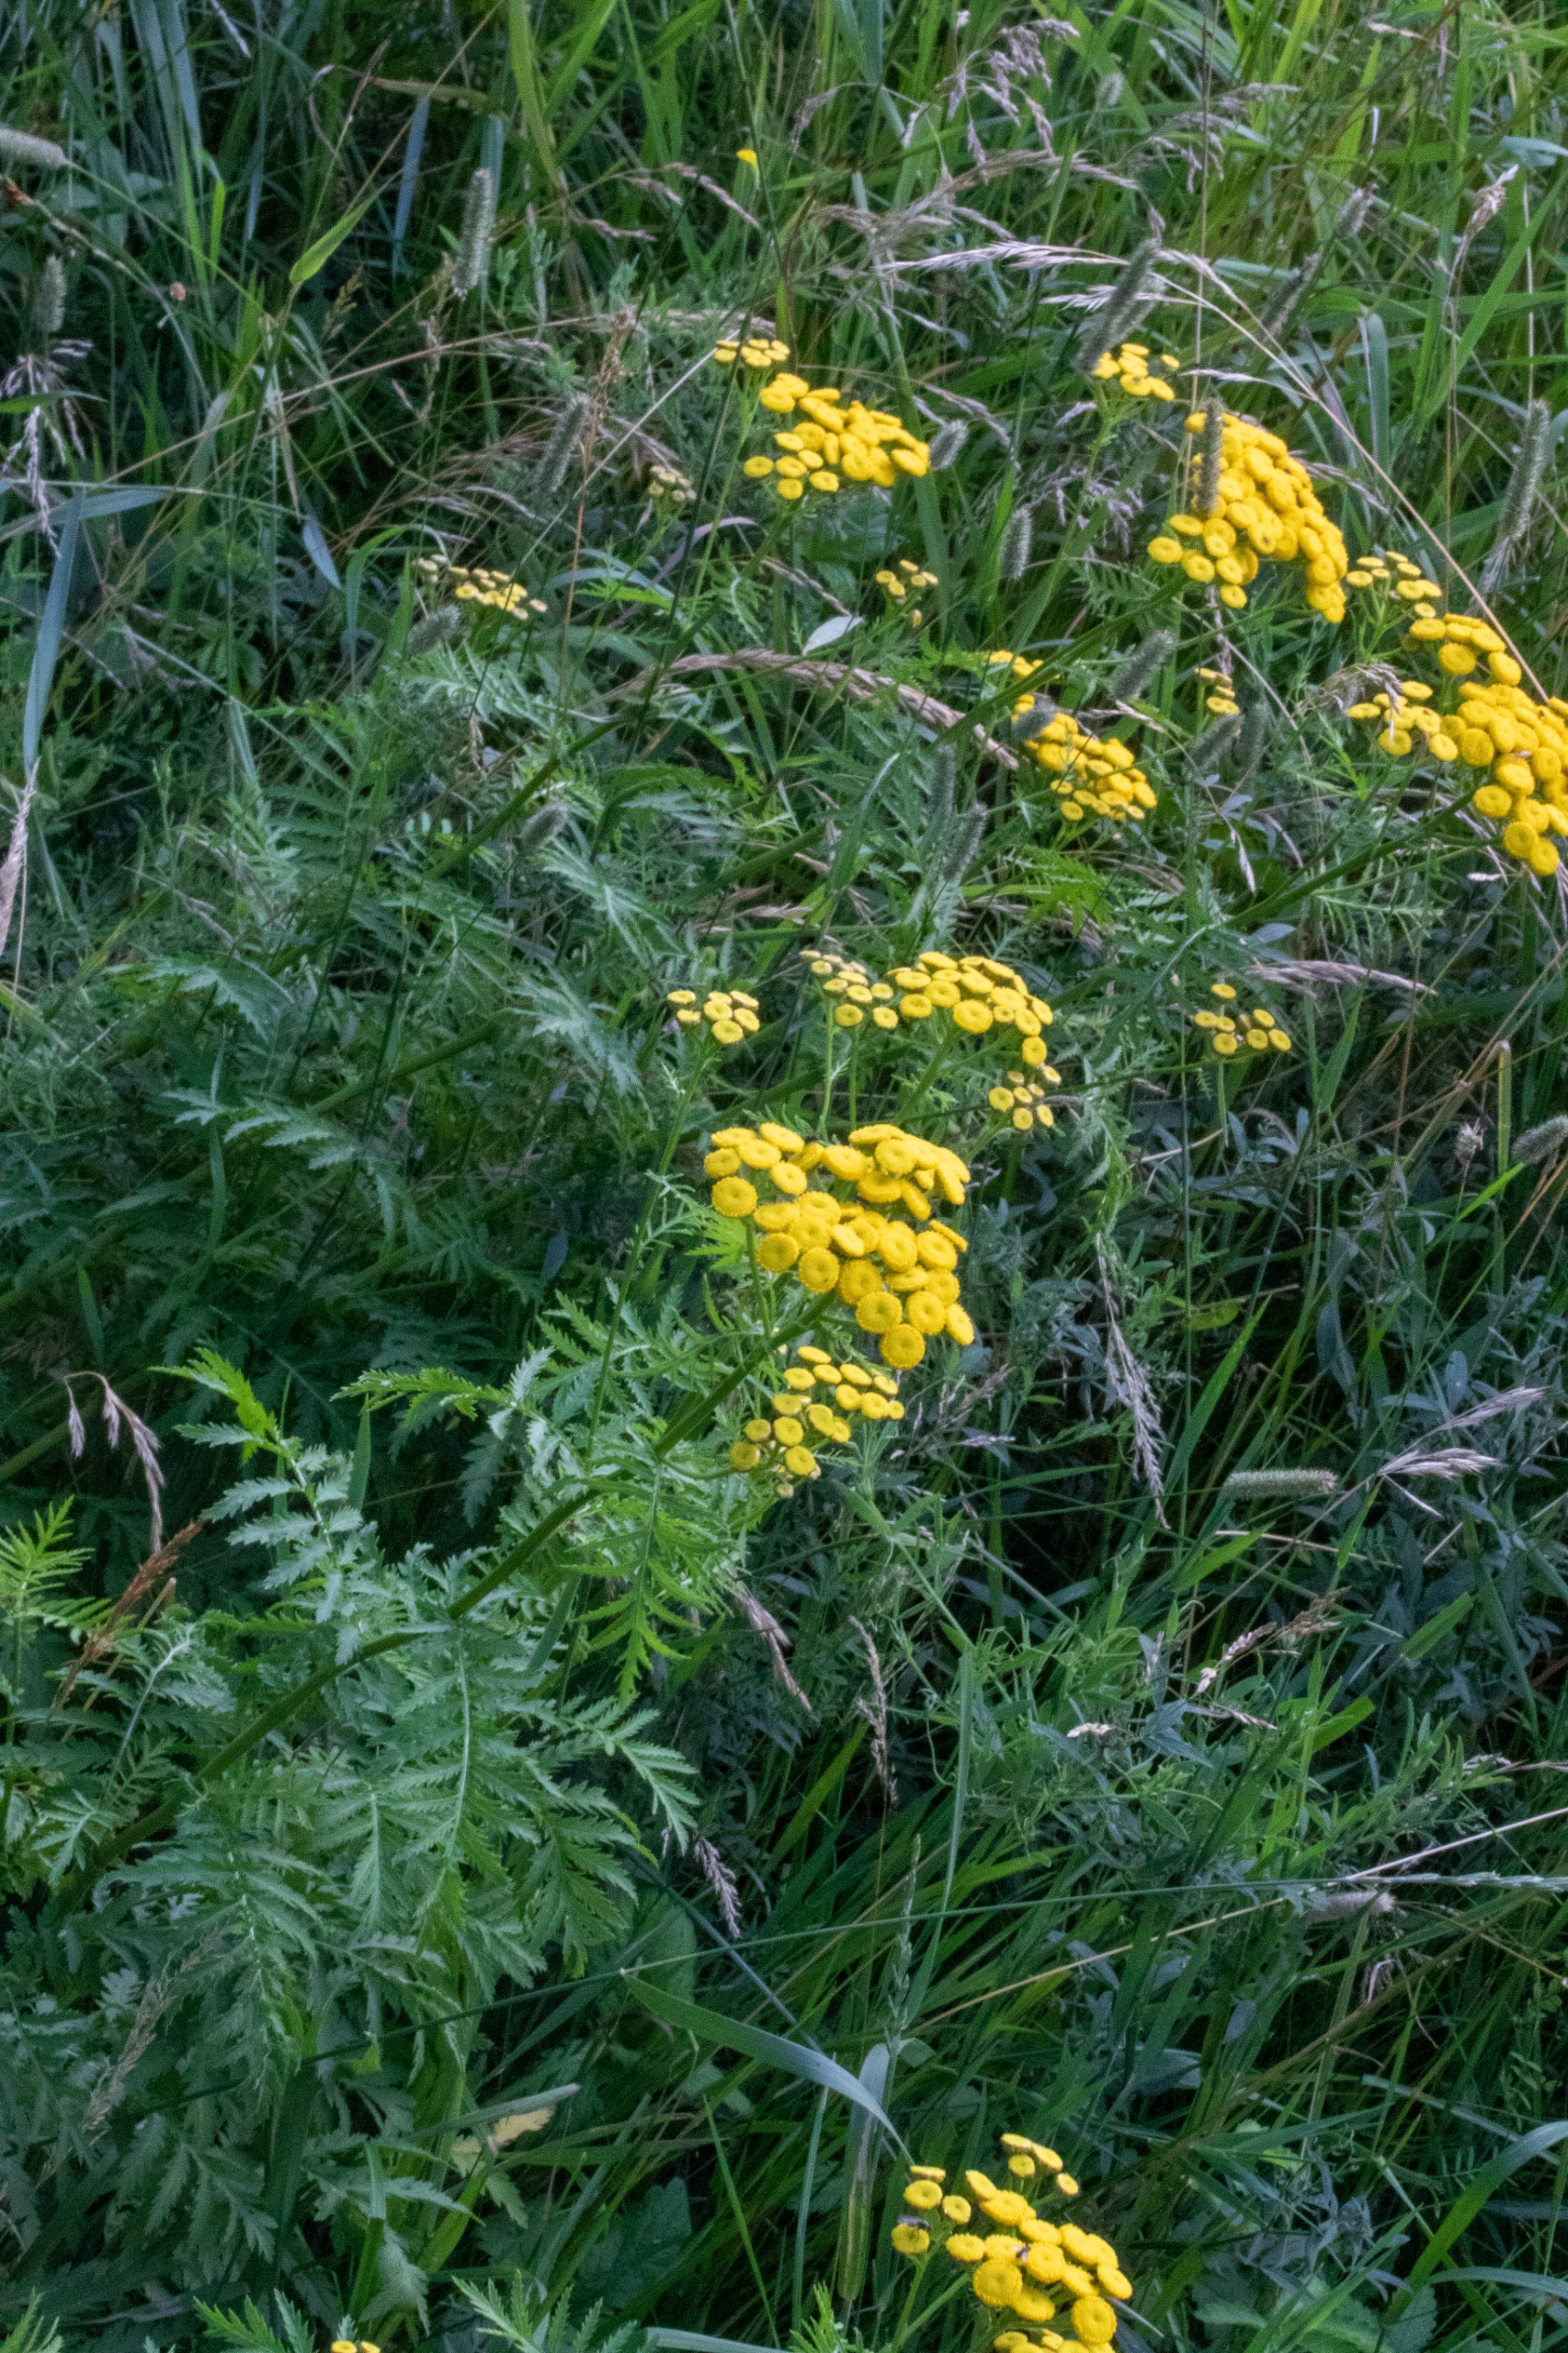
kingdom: Plantae
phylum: Tracheophyta
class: Magnoliopsida
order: Asterales
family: Asteraceae
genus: Tanacetum
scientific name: Tanacetum vulgare
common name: Rejnfan
